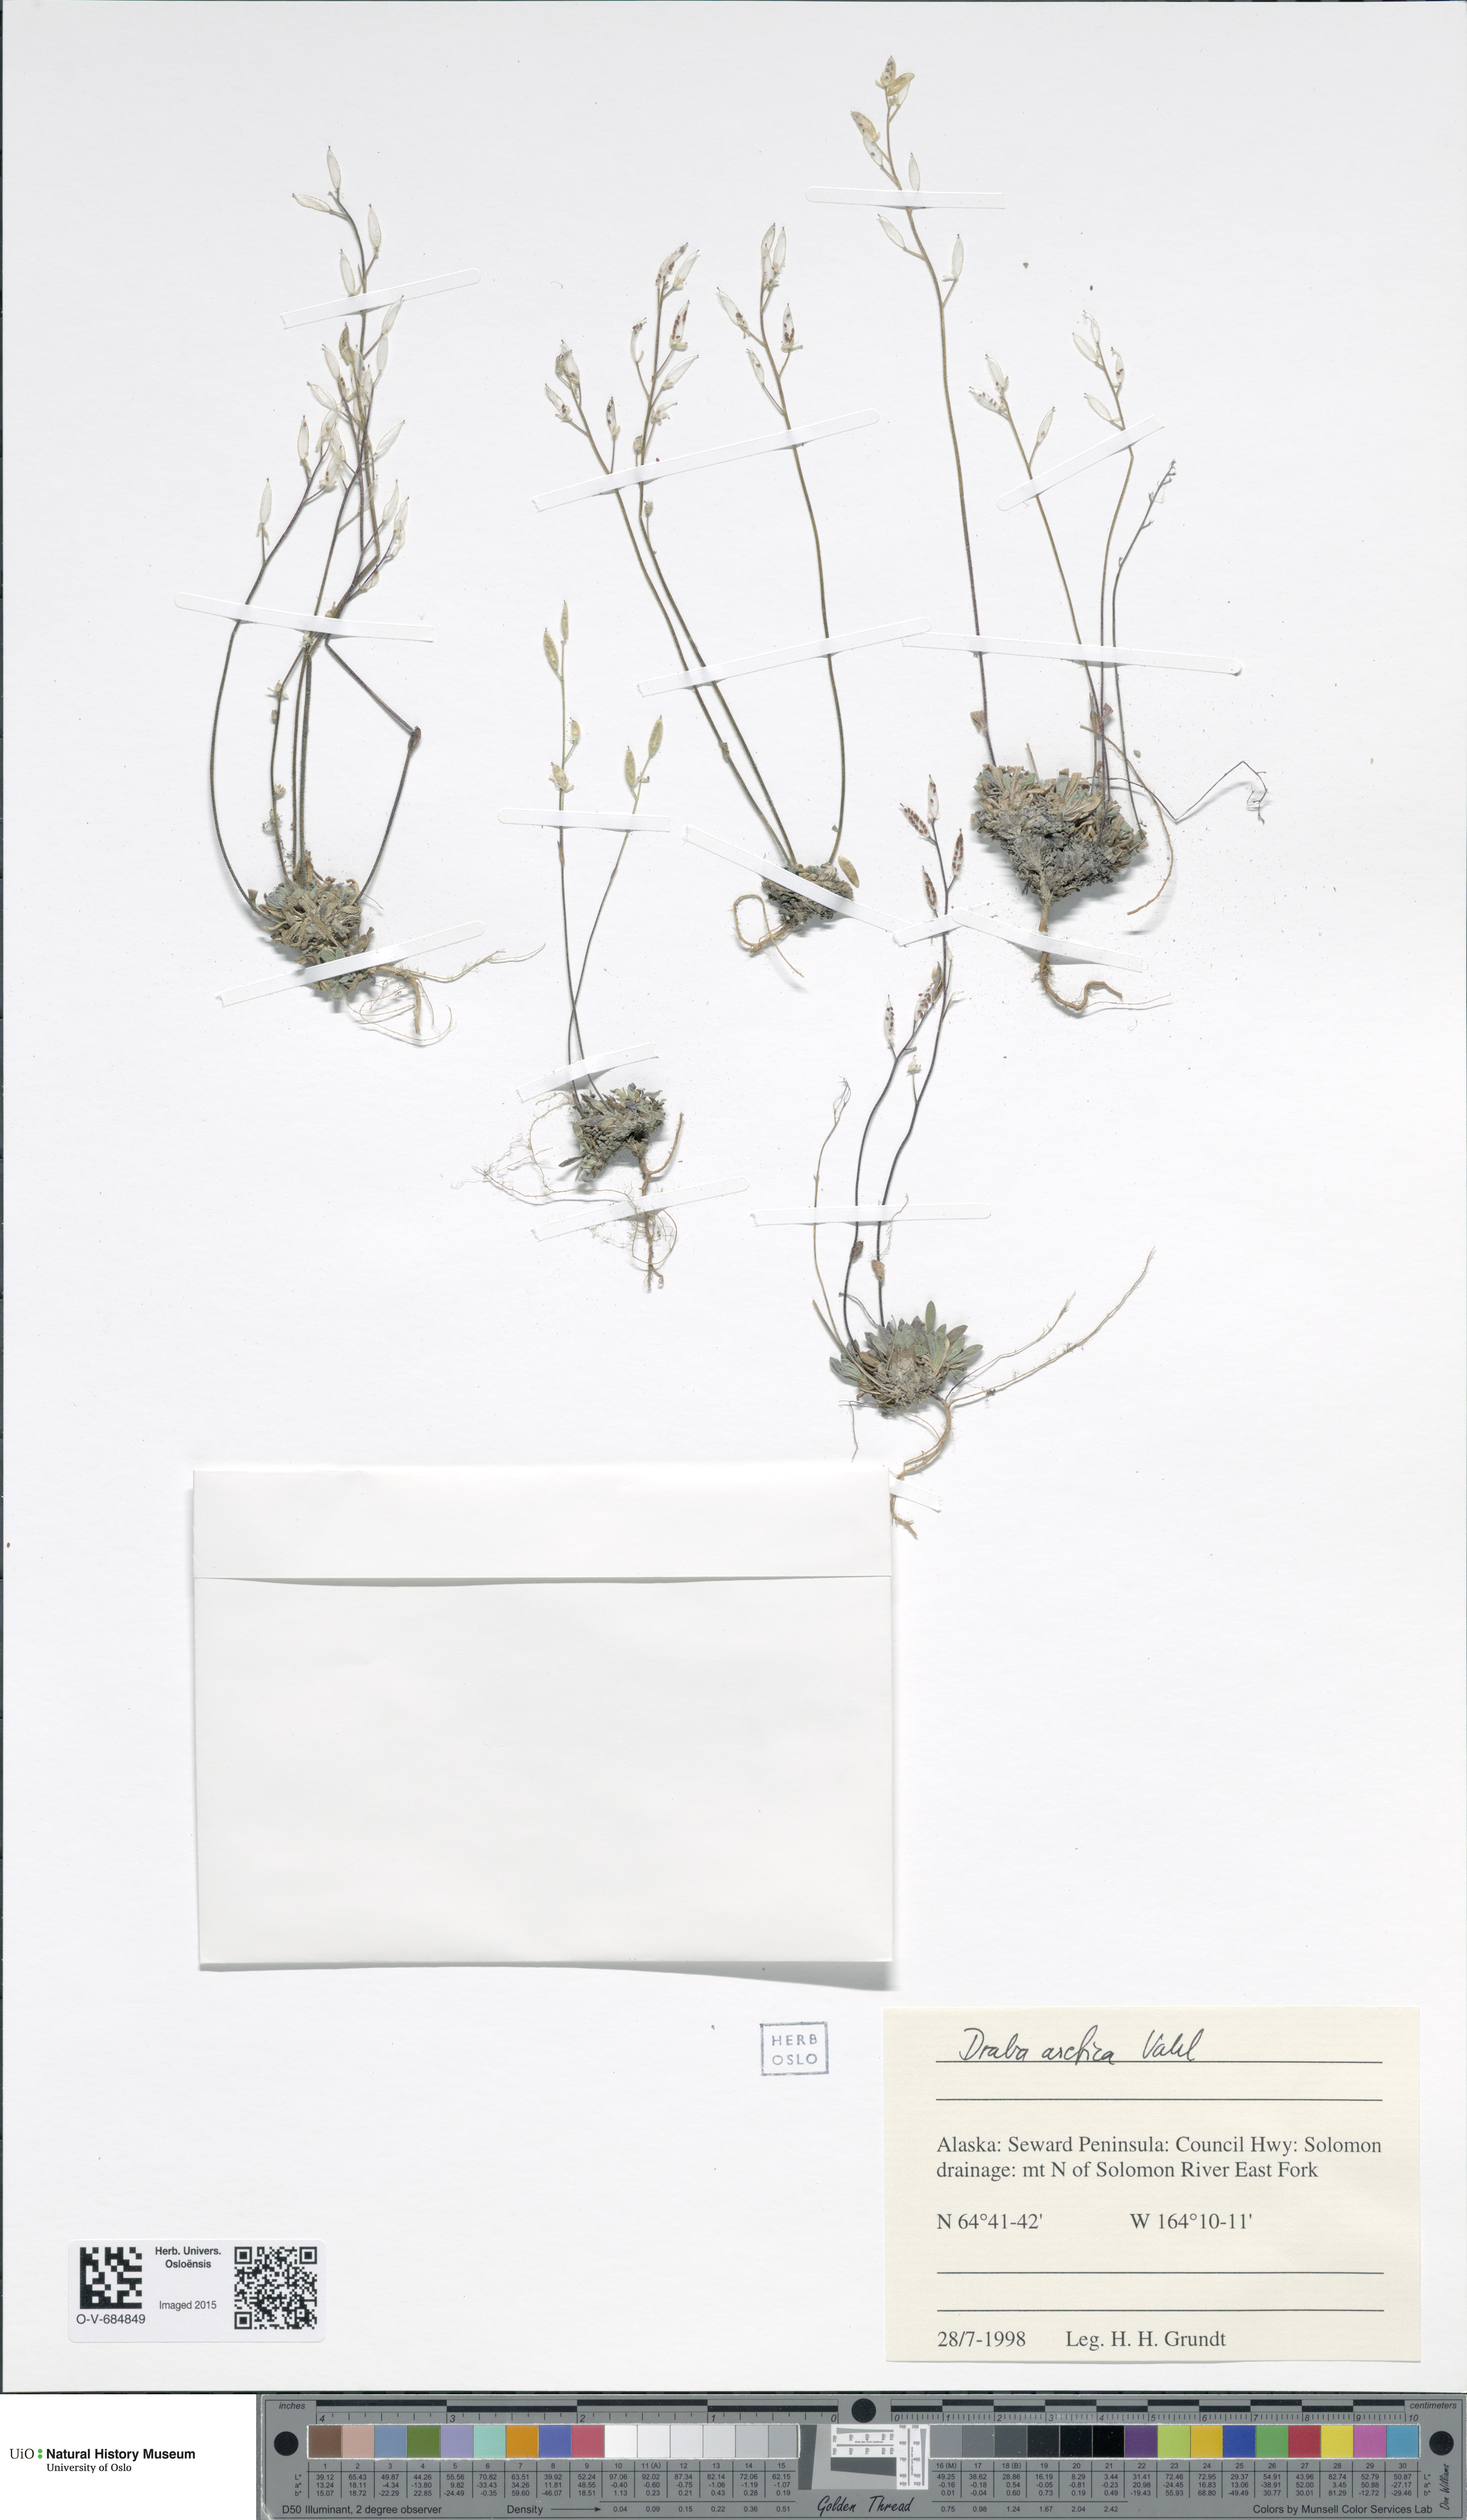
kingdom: Plantae
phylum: Tracheophyta
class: Magnoliopsida
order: Brassicales
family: Brassicaceae
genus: Draba
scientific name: Draba arctica
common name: Arctic draba
